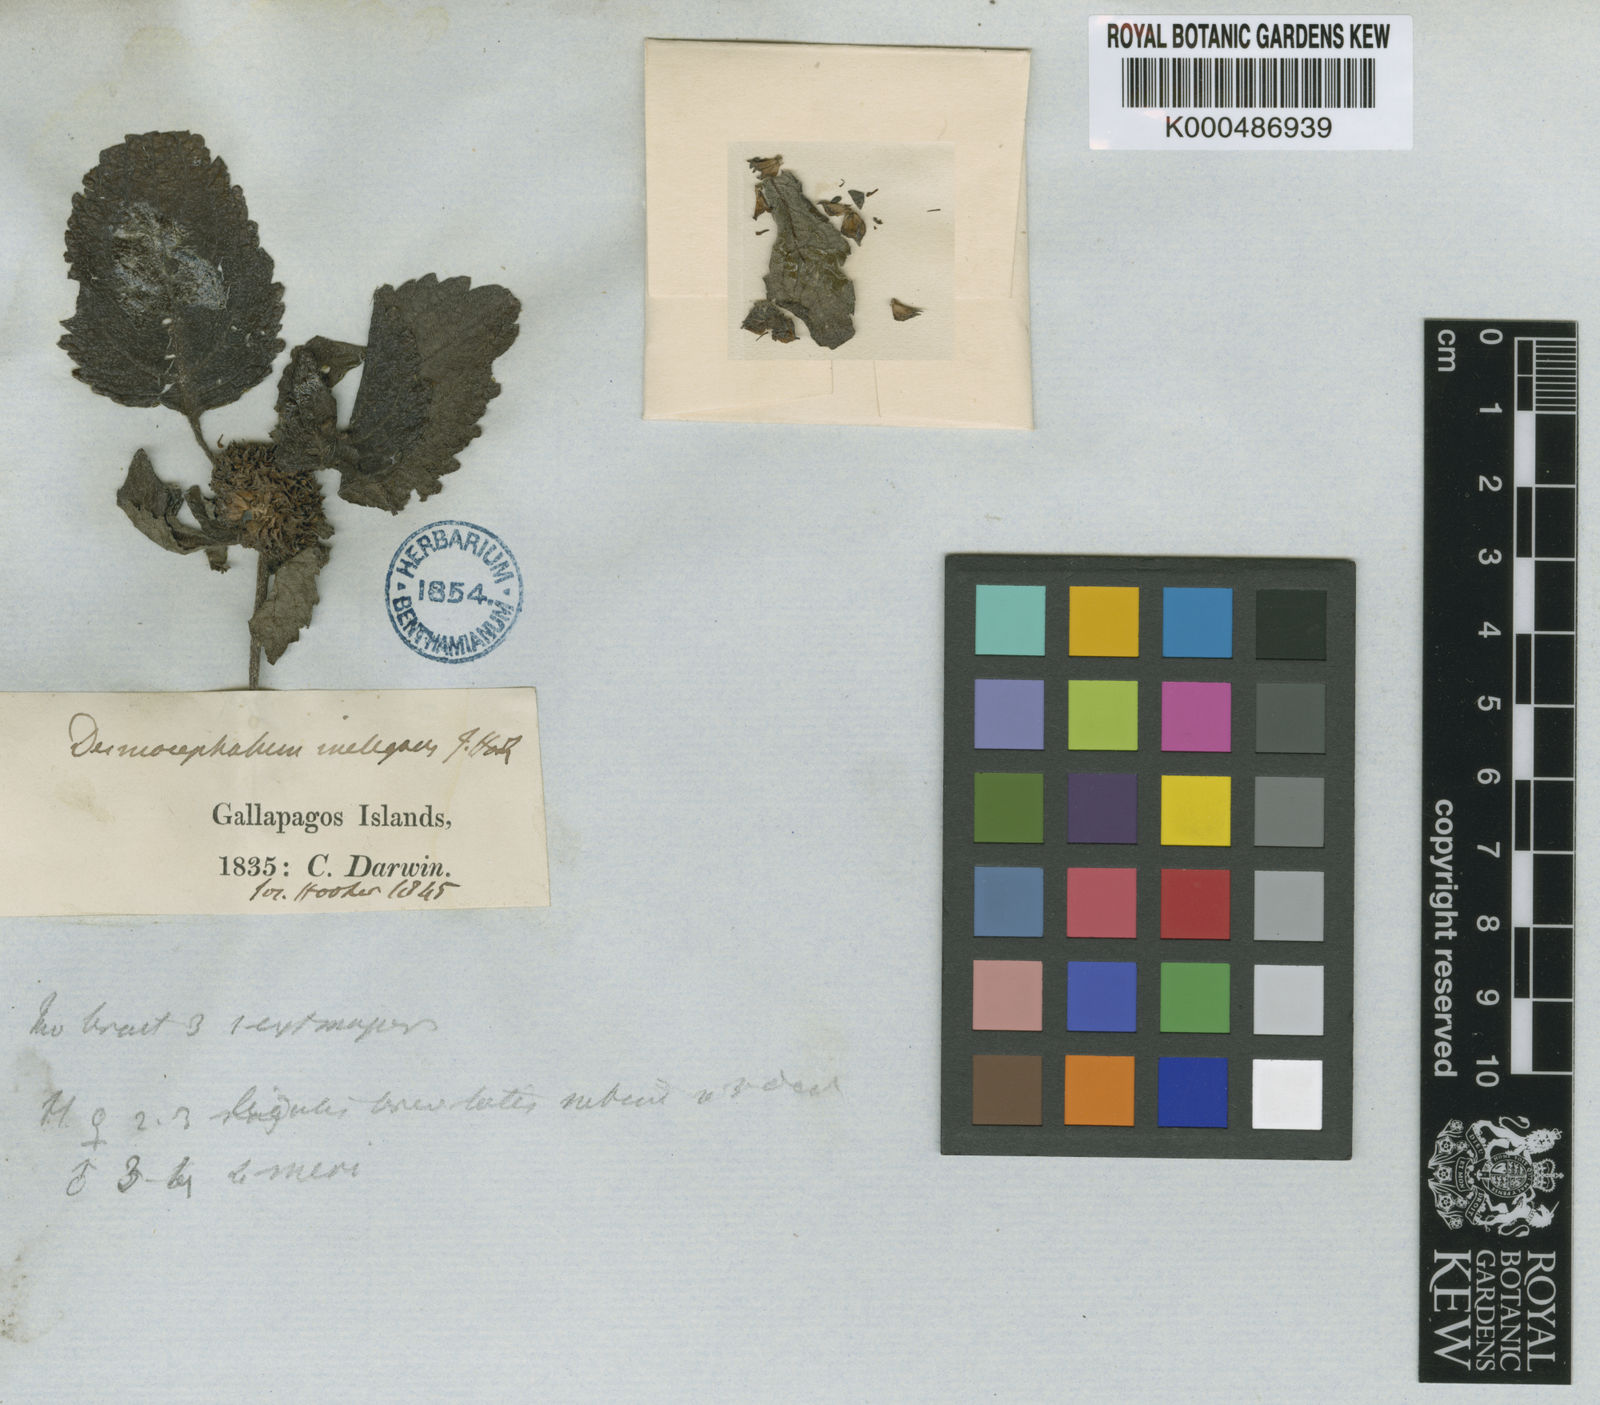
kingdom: Plantae
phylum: Tracheophyta
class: Magnoliopsida
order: Asterales
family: Asteraceae
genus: Delilia
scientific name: Delilia repens
